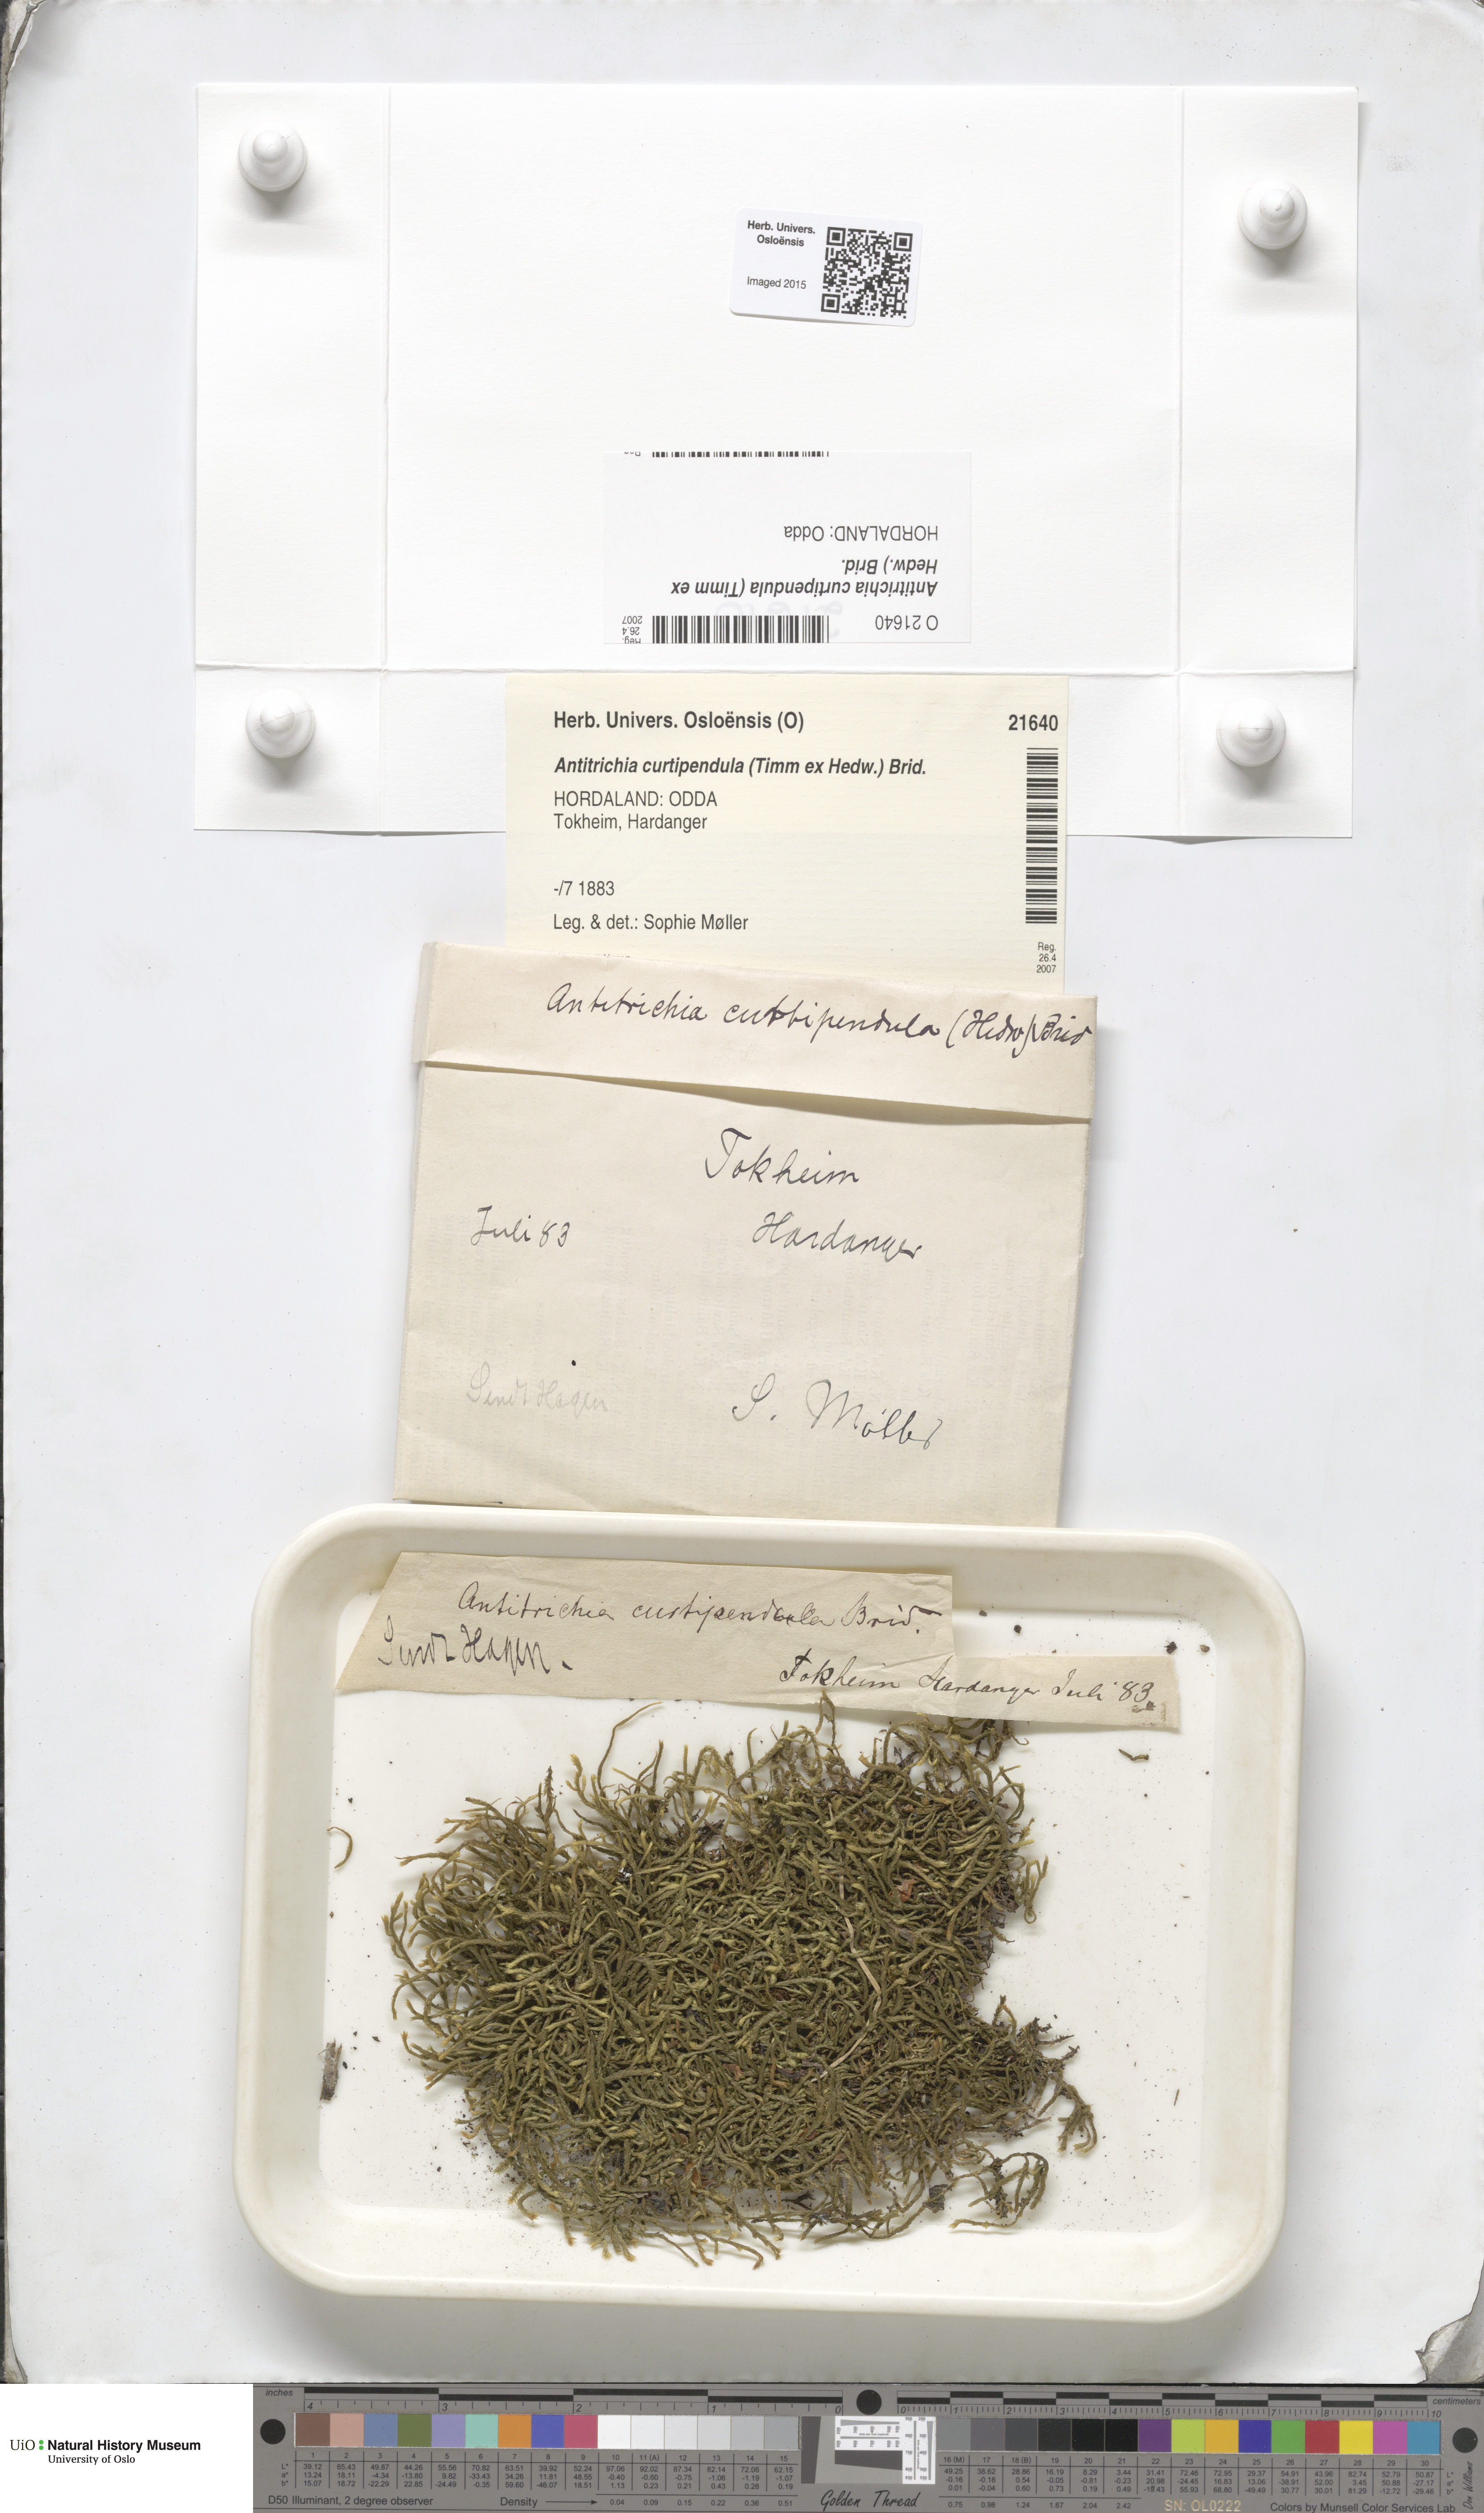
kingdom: Plantae
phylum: Bryophyta
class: Bryopsida
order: Hypnales
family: Antitrichiaceae
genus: Antitrichia
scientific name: Antitrichia curtipendula
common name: Pendulous wing-moss
